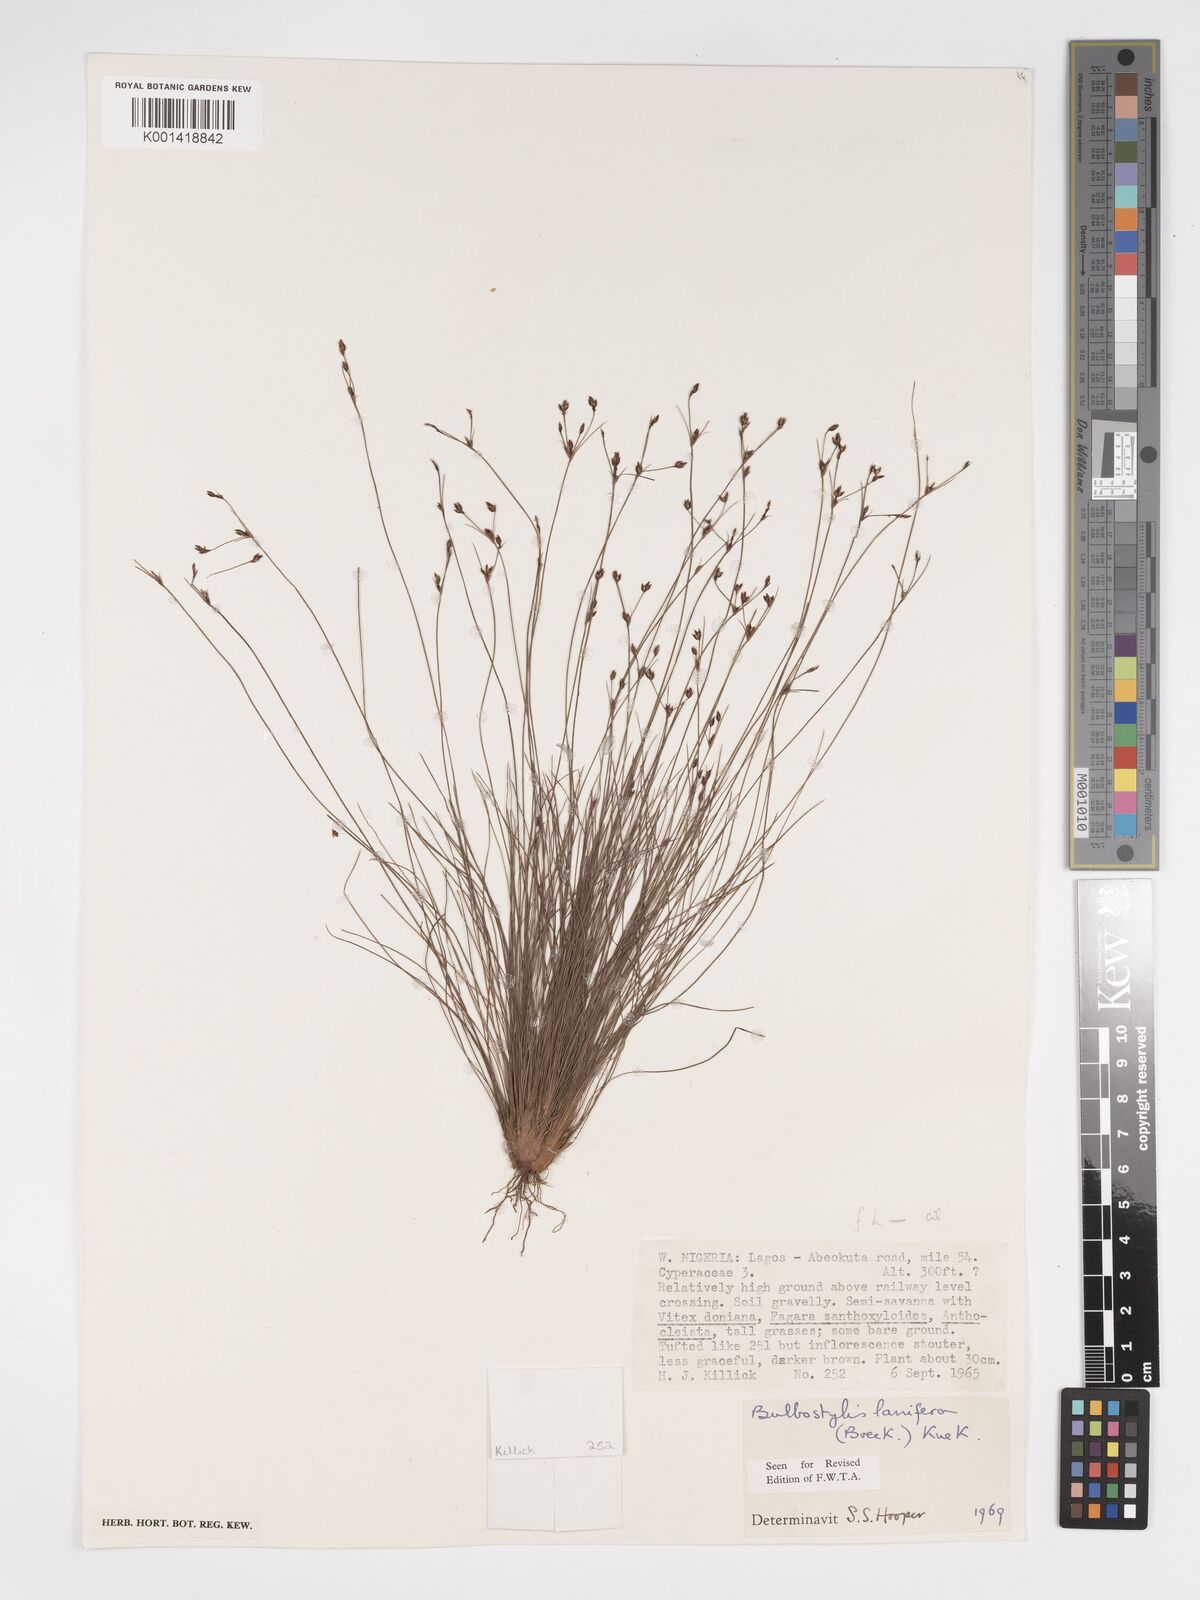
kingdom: Plantae
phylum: Tracheophyta
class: Liliopsida
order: Poales
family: Cyperaceae
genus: Bulbostylis
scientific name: Bulbostylis lanifera
